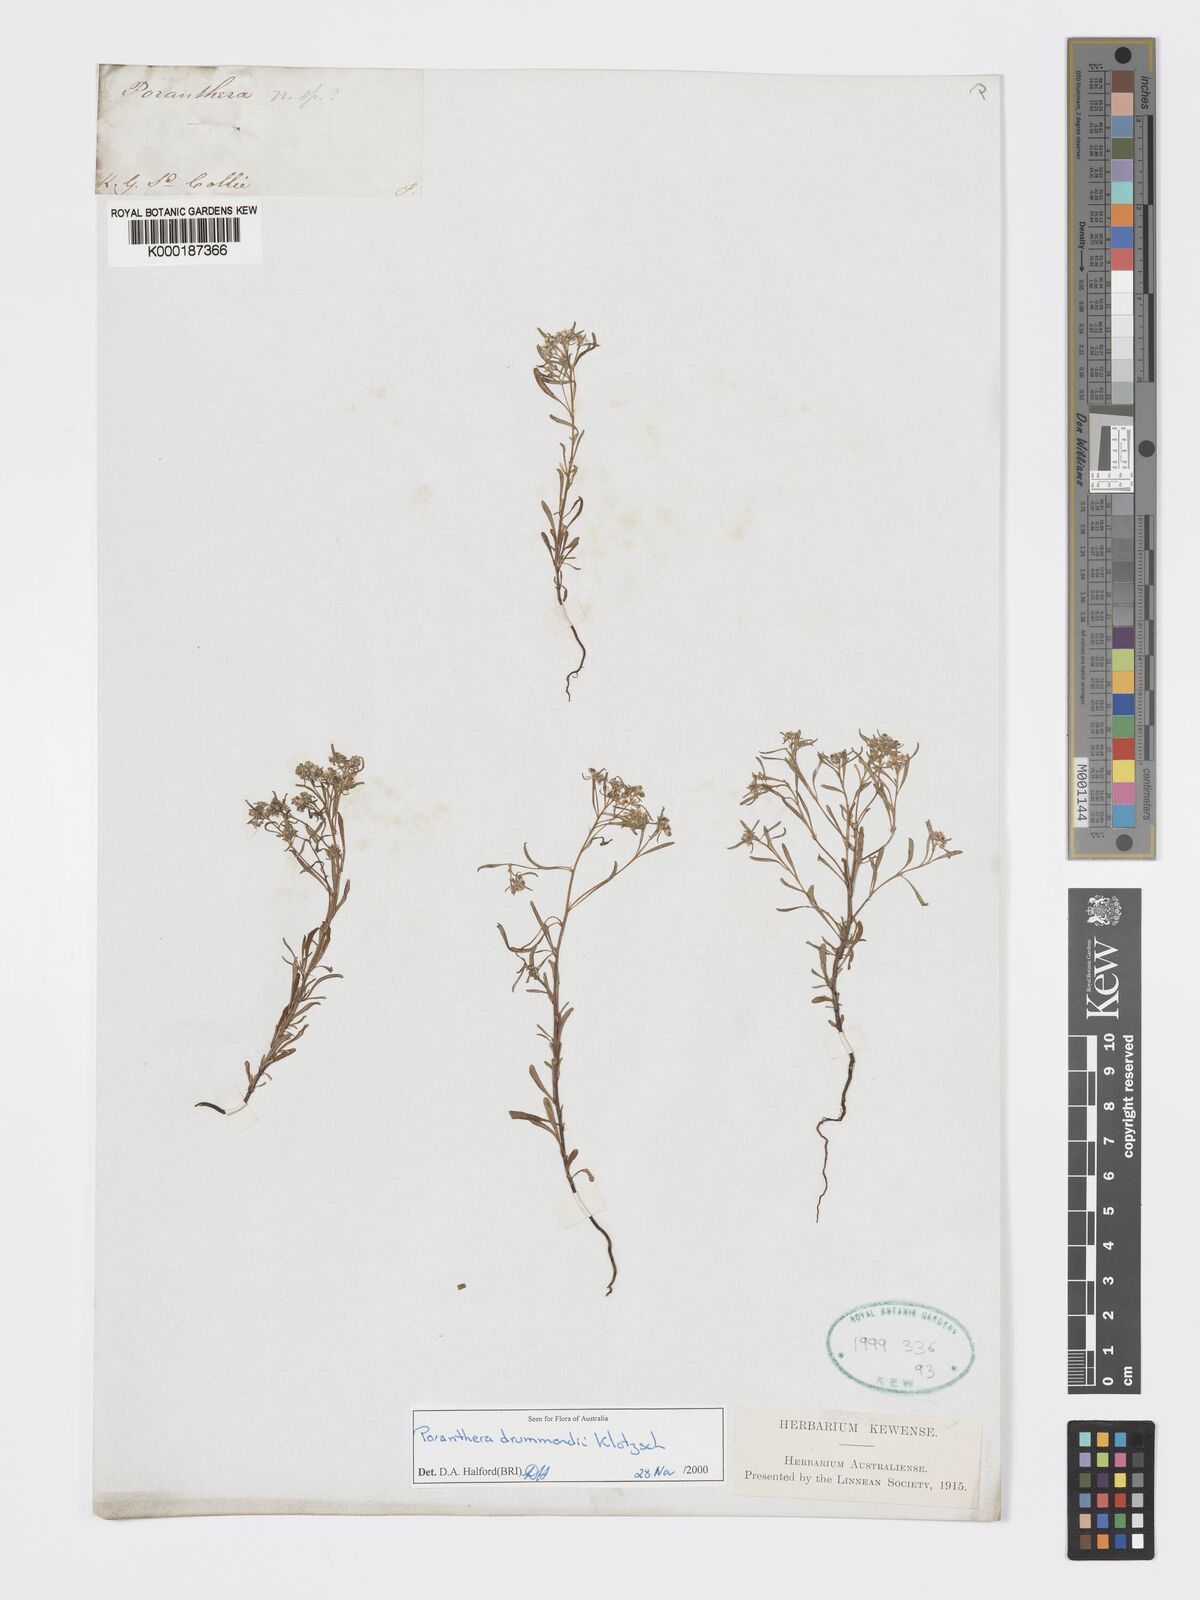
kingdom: Plantae
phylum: Tracheophyta
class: Magnoliopsida
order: Malpighiales
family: Phyllanthaceae
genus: Poranthera
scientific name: Poranthera drummondii
